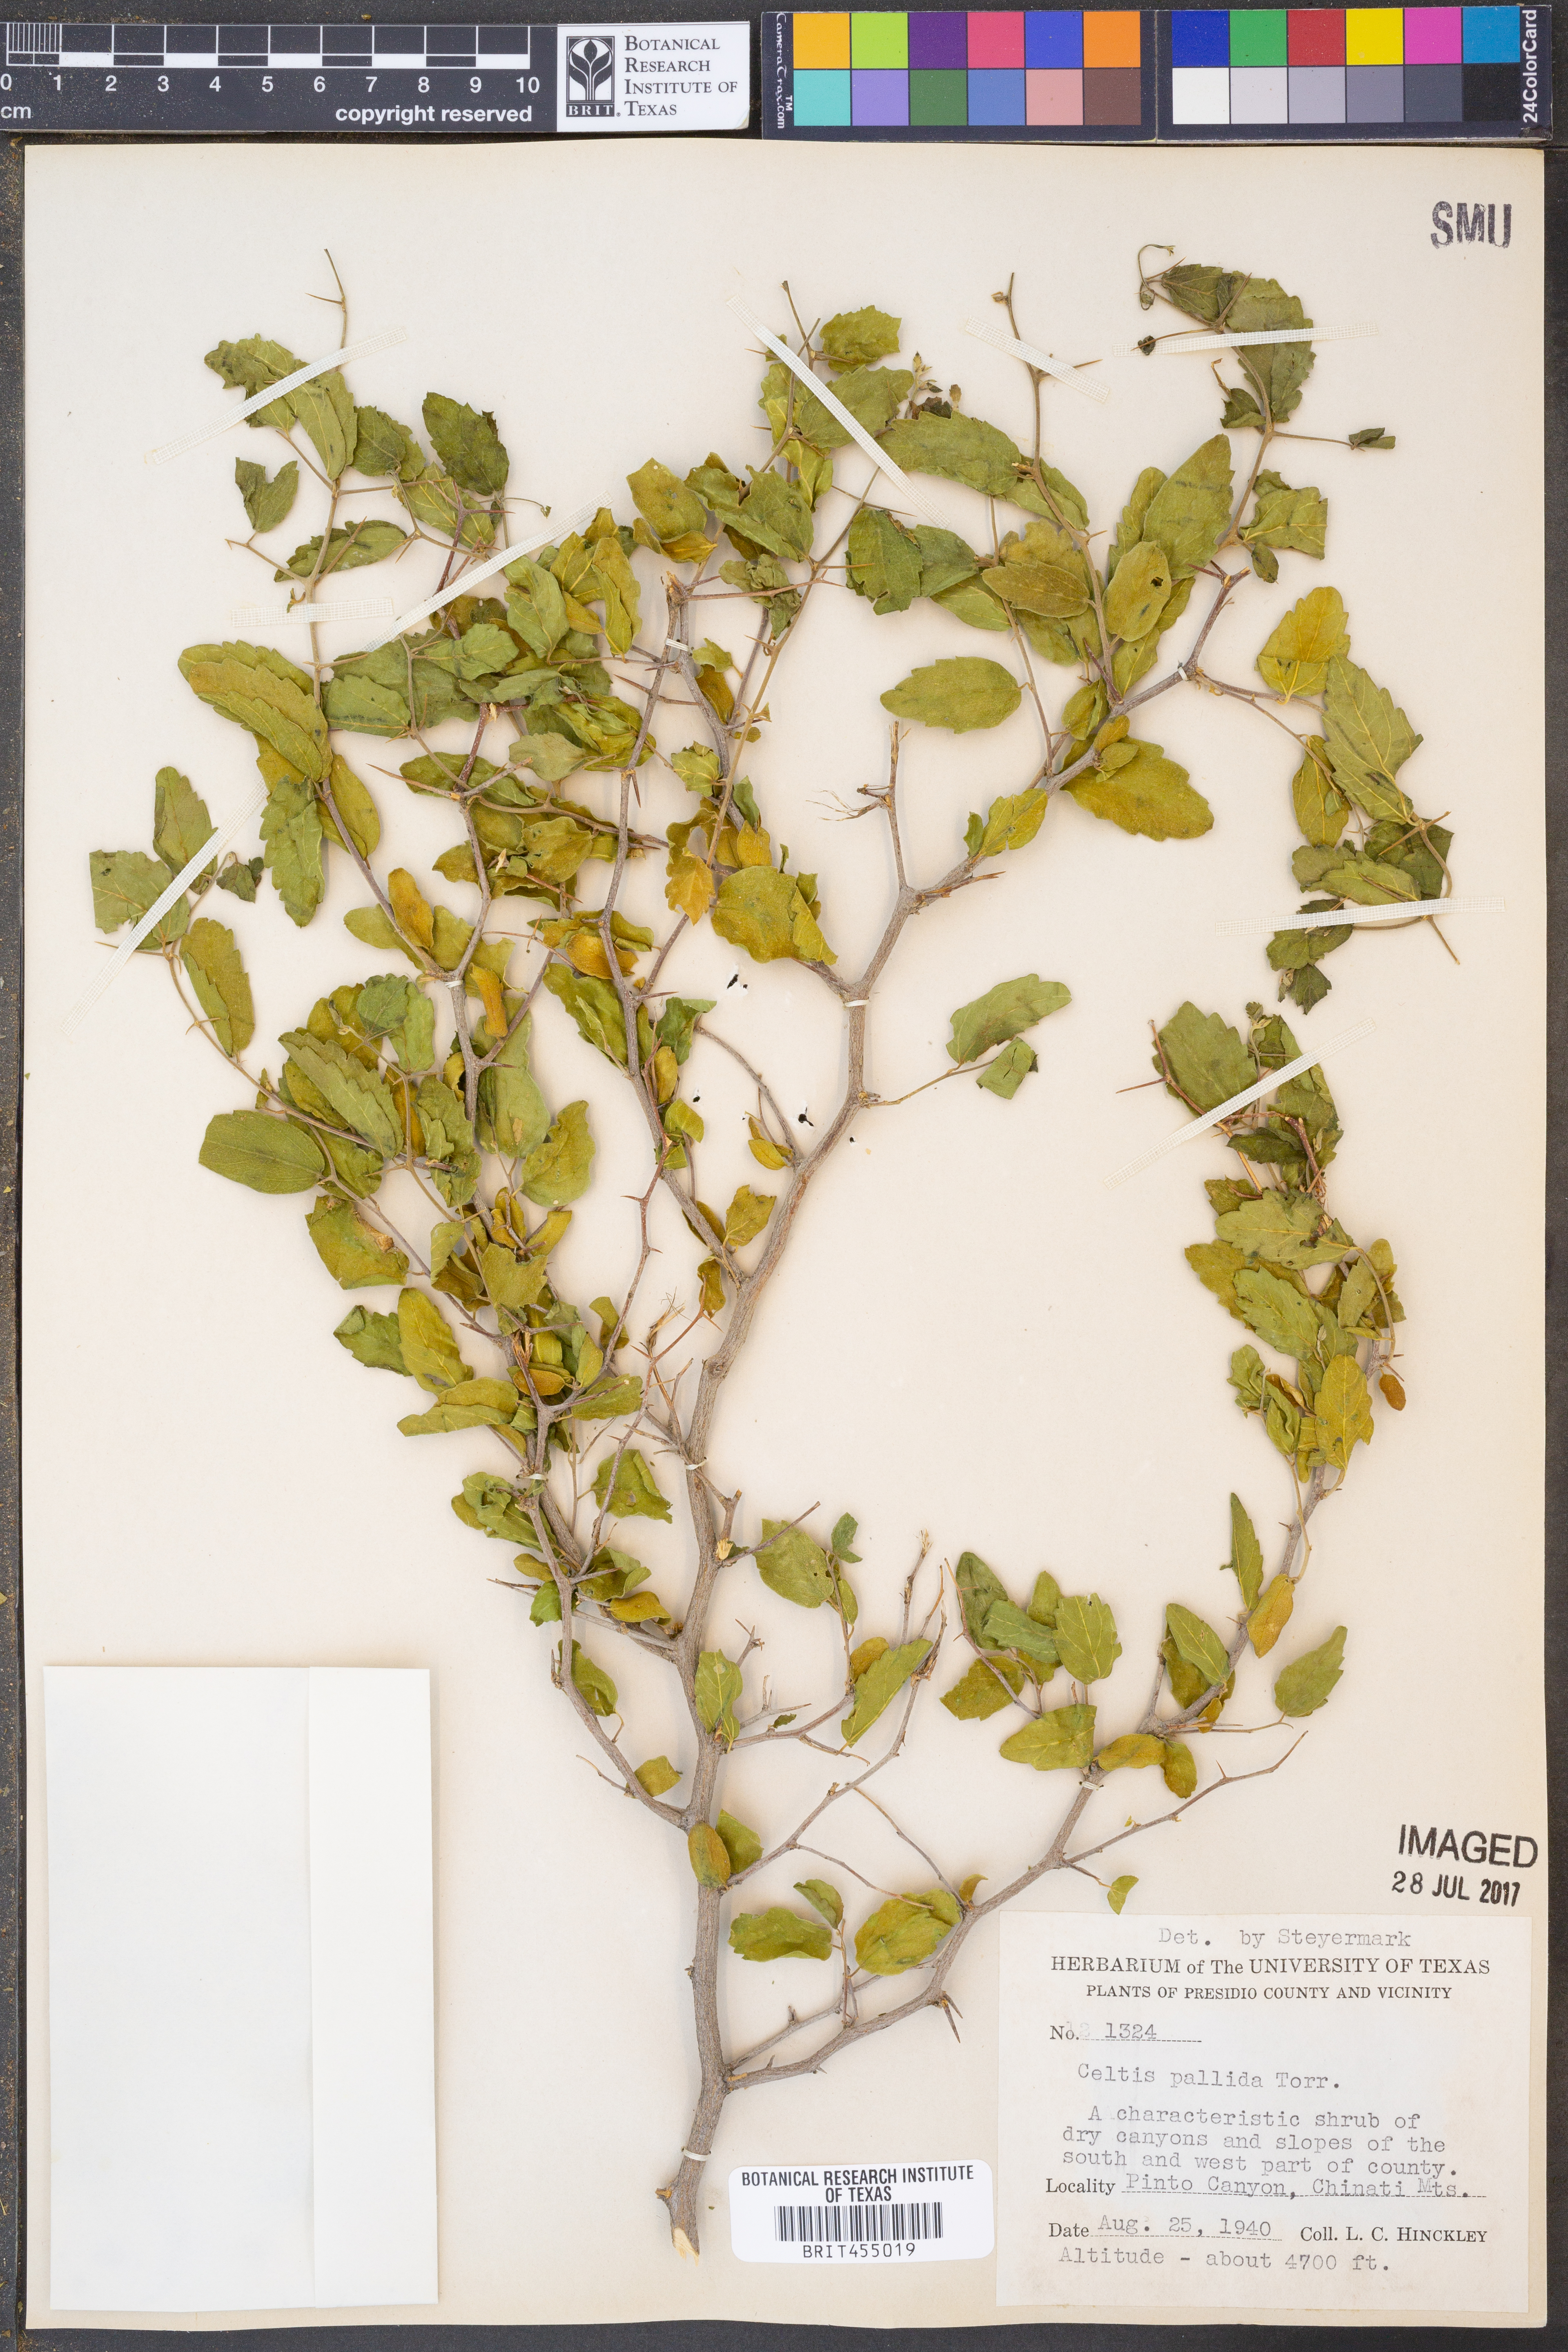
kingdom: Plantae
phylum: Tracheophyta
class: Magnoliopsida
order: Rosales
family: Cannabaceae
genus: Celtis
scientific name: Celtis pallida
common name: Desert hackberry
